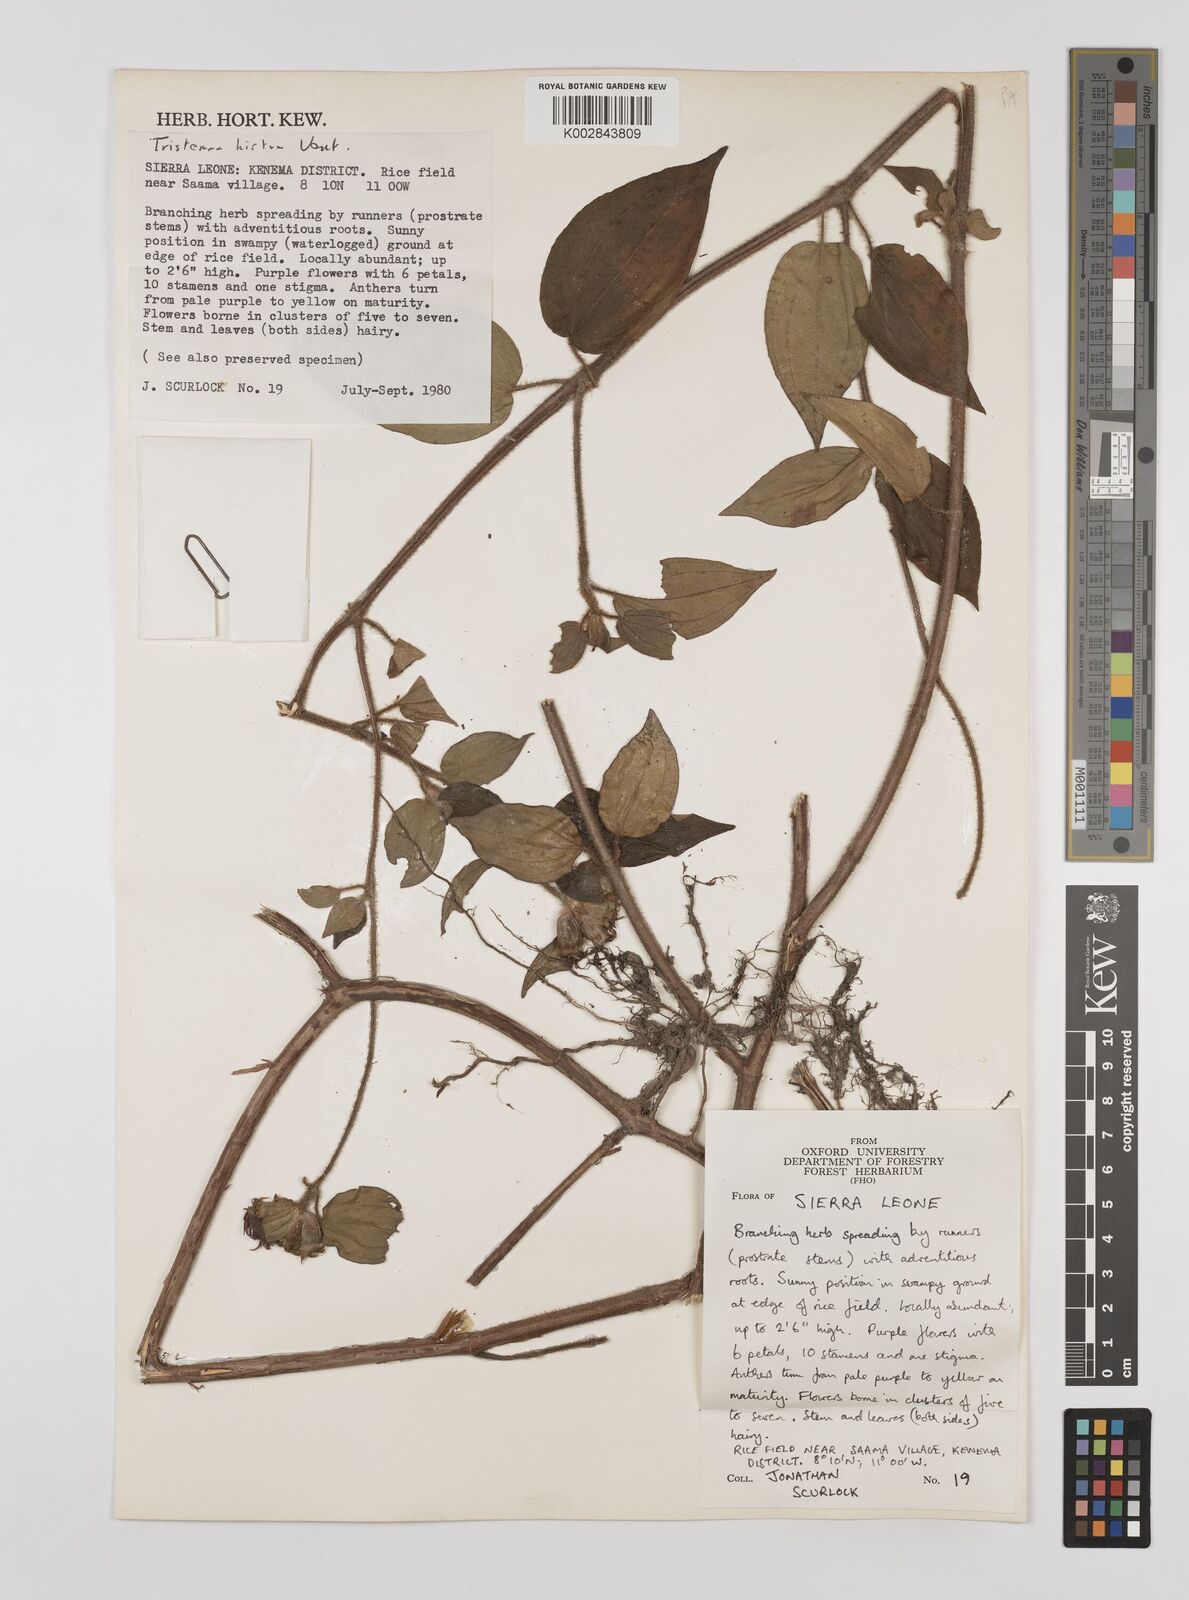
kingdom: Plantae
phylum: Tracheophyta
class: Magnoliopsida
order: Myrtales
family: Melastomataceae
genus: Tristemma
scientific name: Tristemma hirtum
